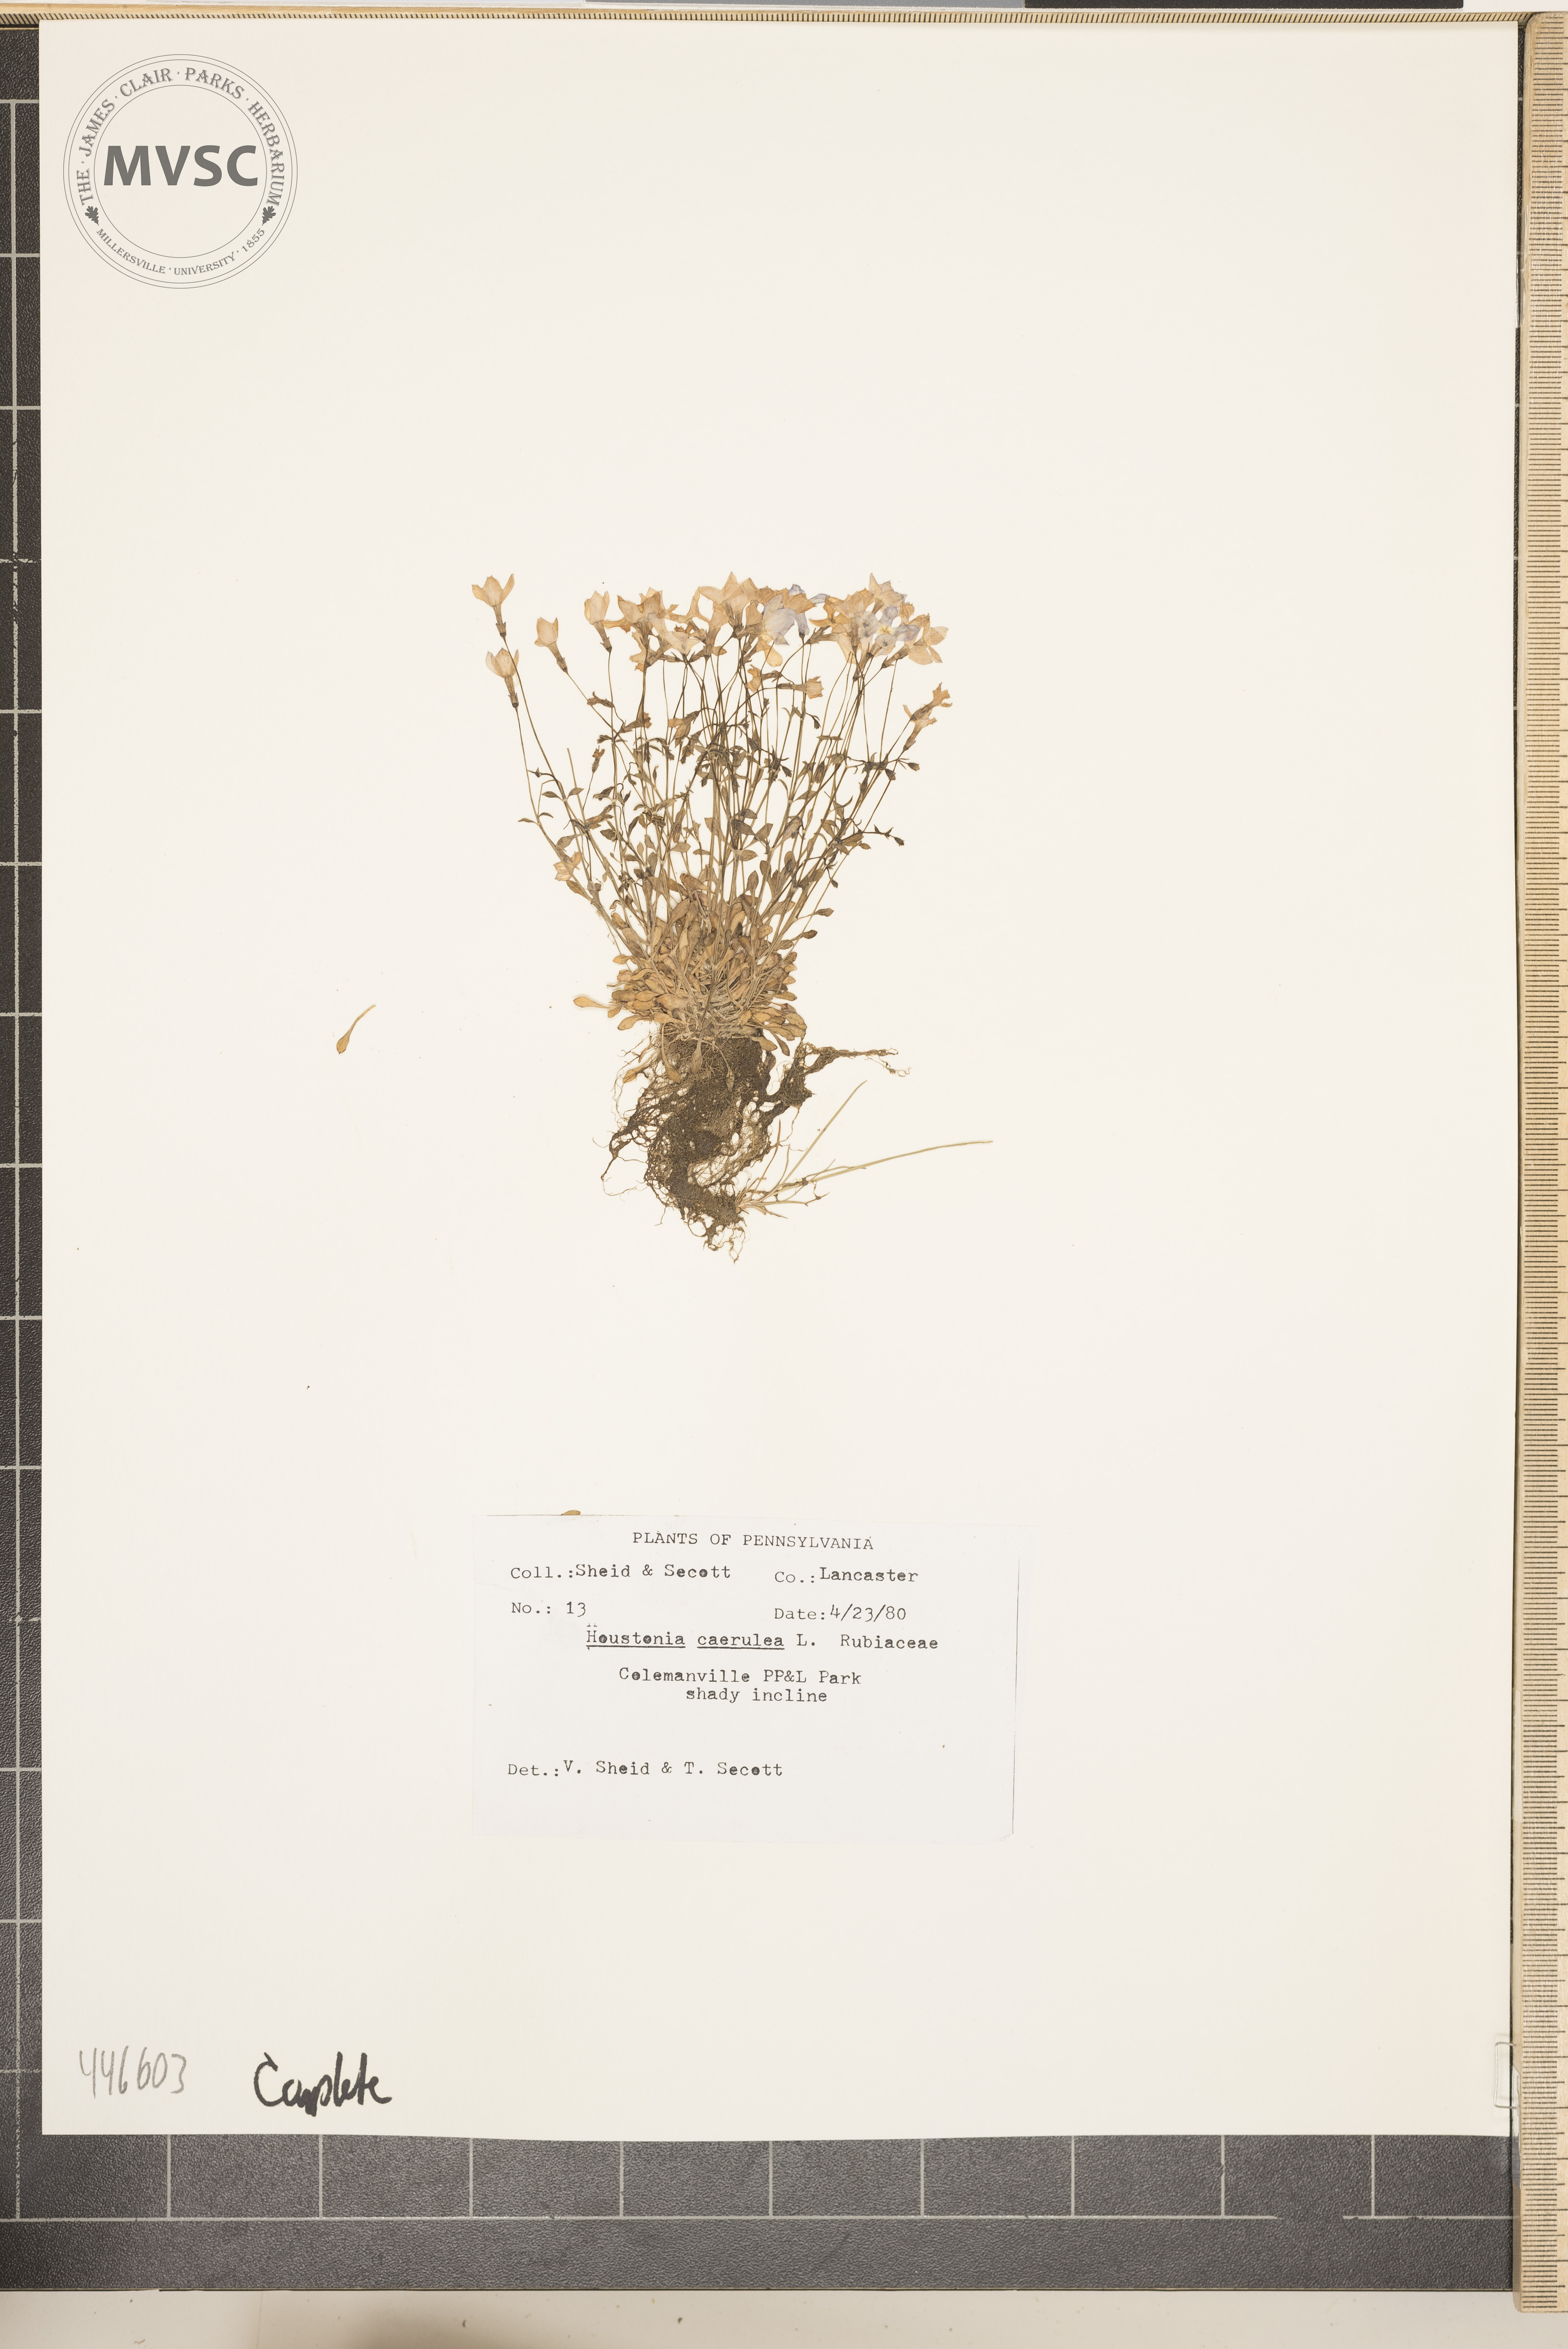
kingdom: Plantae
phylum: Tracheophyta
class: Magnoliopsida
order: Gentianales
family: Rubiaceae
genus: Houstonia
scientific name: Houstonia caerulea
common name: Bluets
